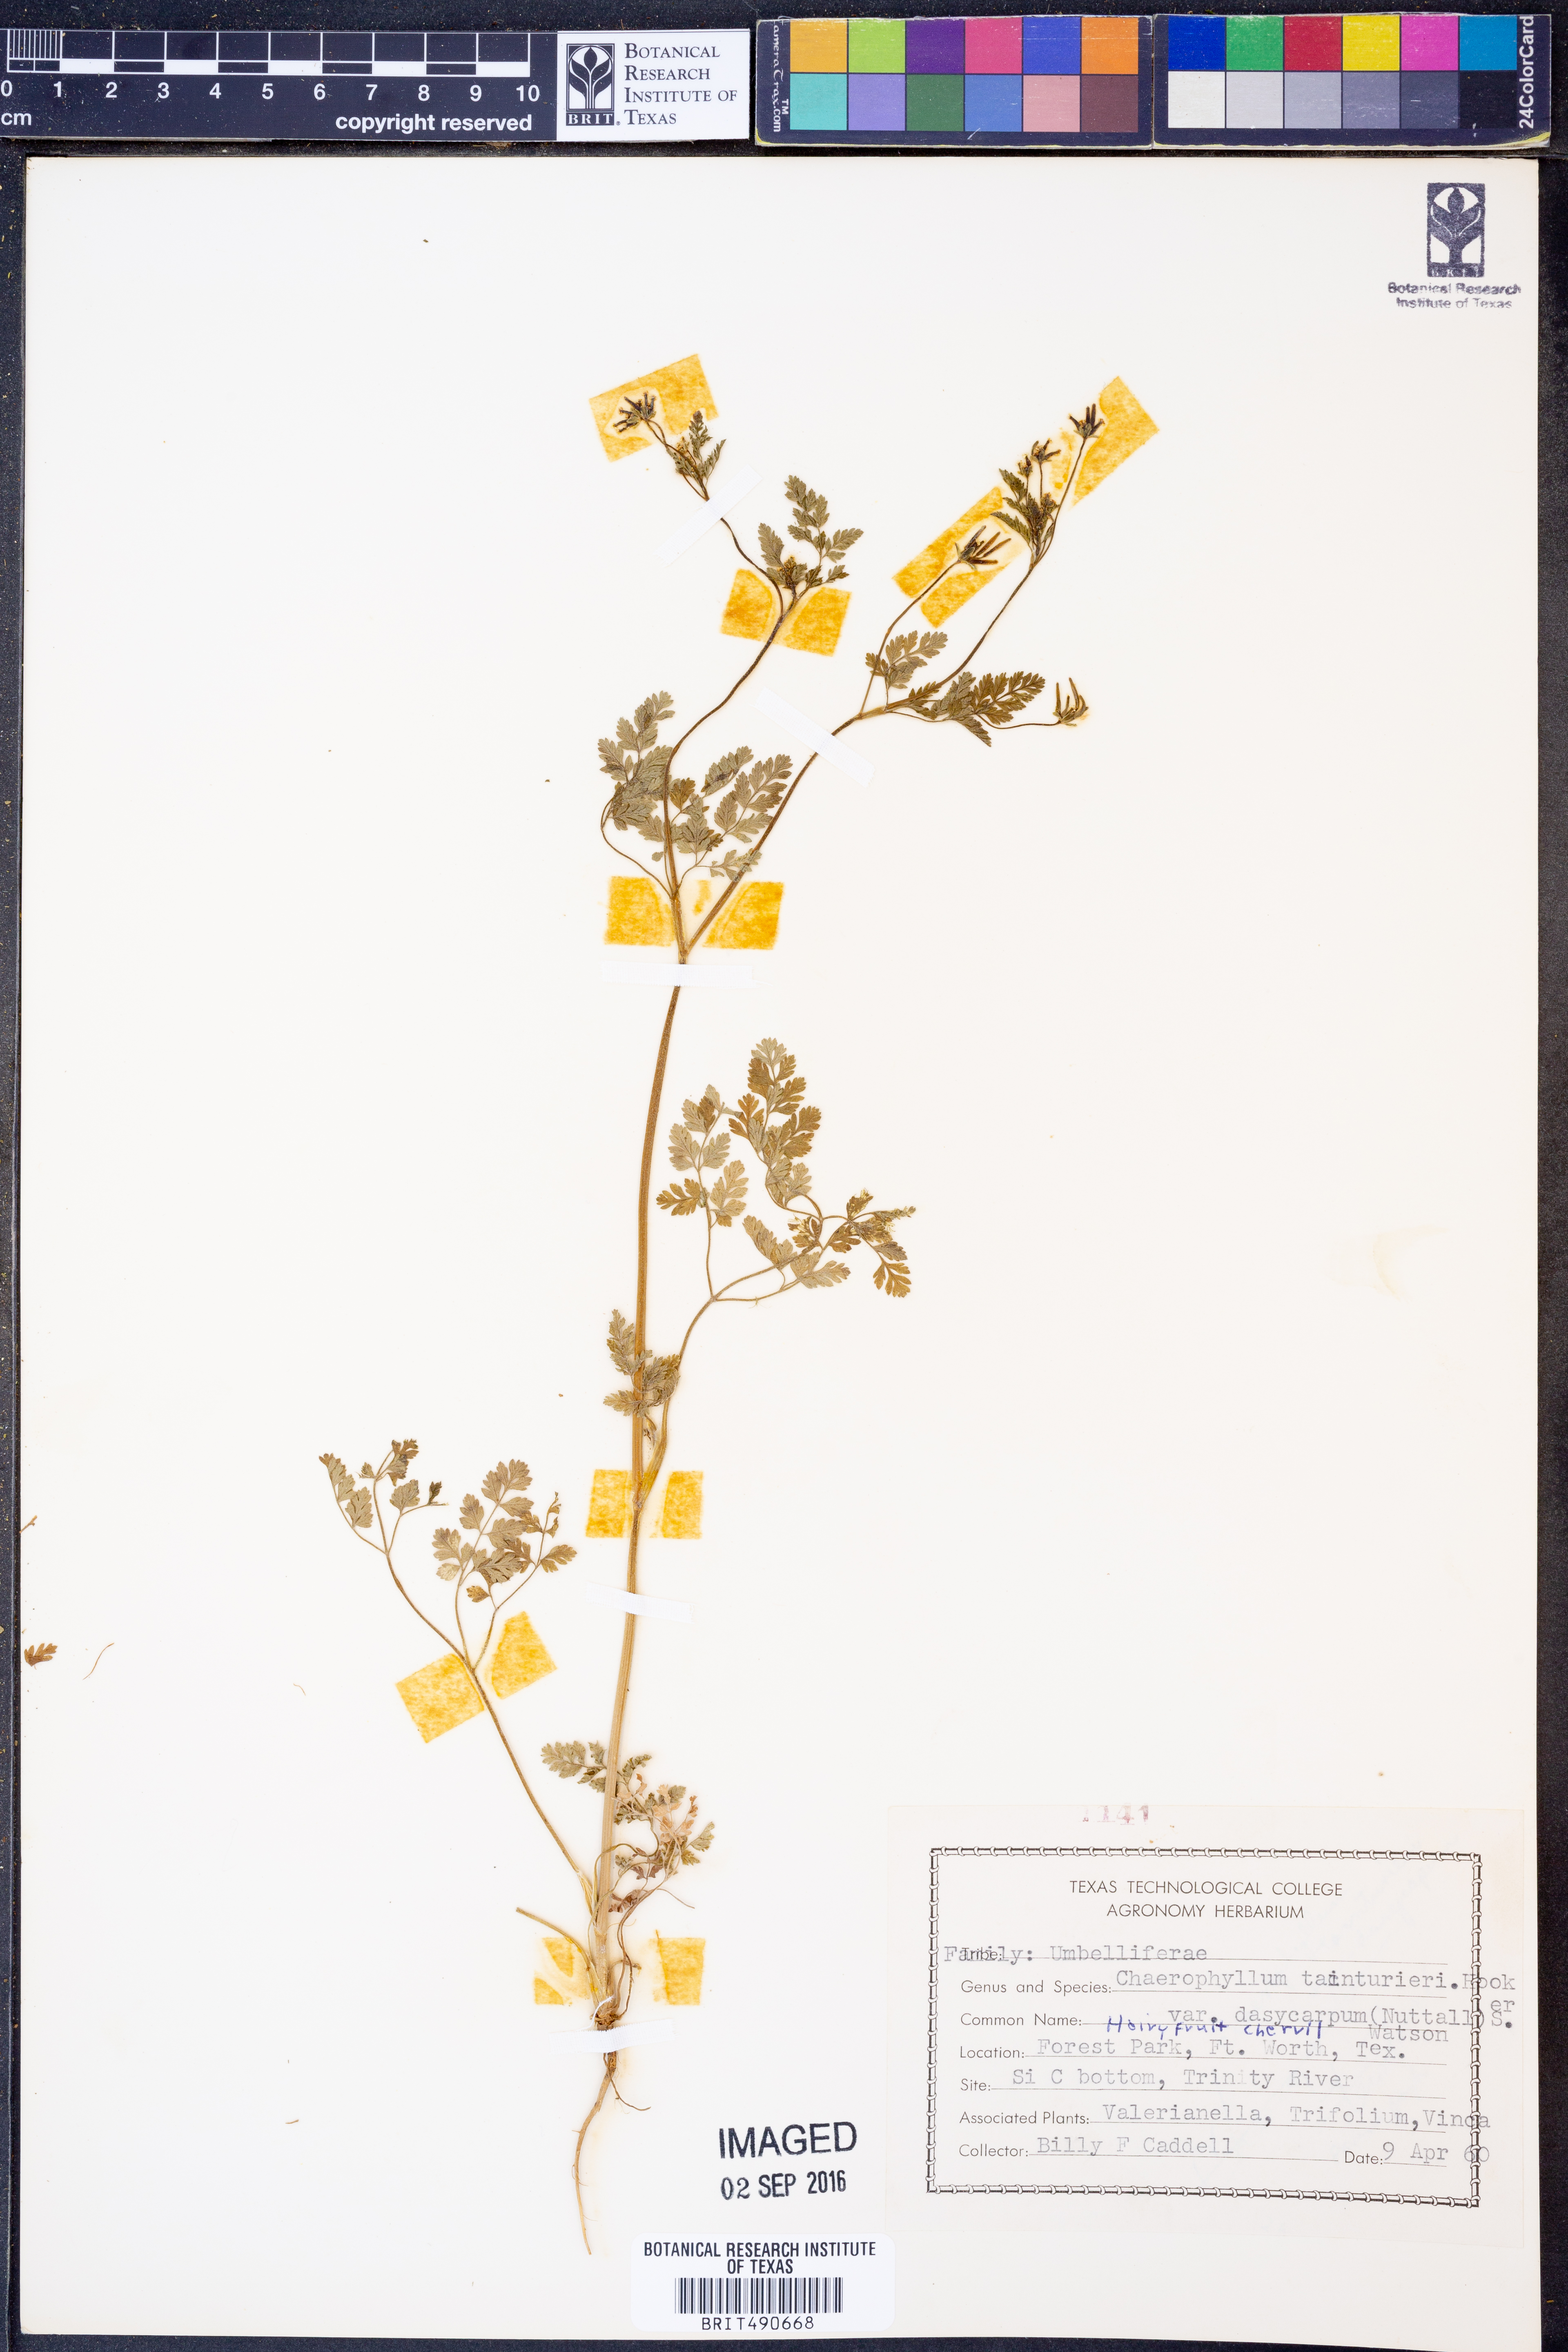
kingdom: Plantae
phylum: Tracheophyta
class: Magnoliopsida
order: Apiales
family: Apiaceae
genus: Chaerophyllum
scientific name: Chaerophyllum dasycarpum
